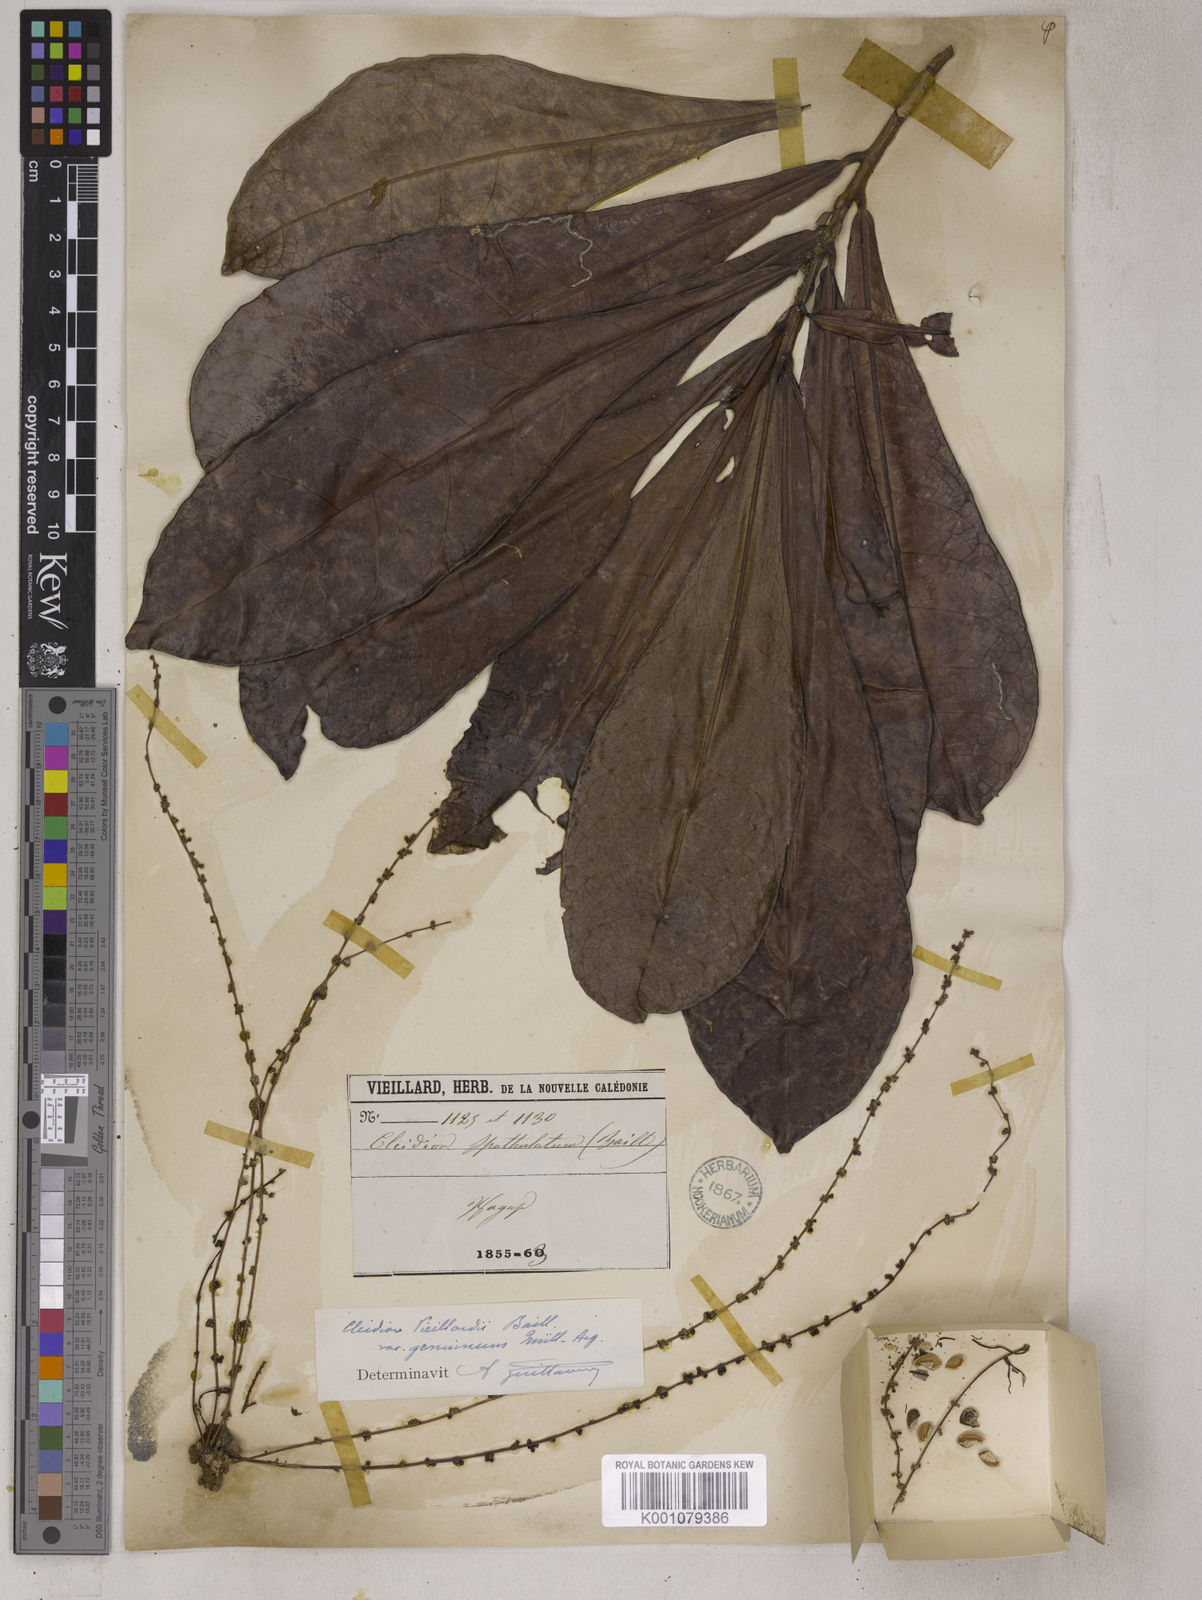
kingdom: Plantae
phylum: Tracheophyta
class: Magnoliopsida
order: Malpighiales
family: Euphorbiaceae
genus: Cleidion
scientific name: Cleidion vieillardii
